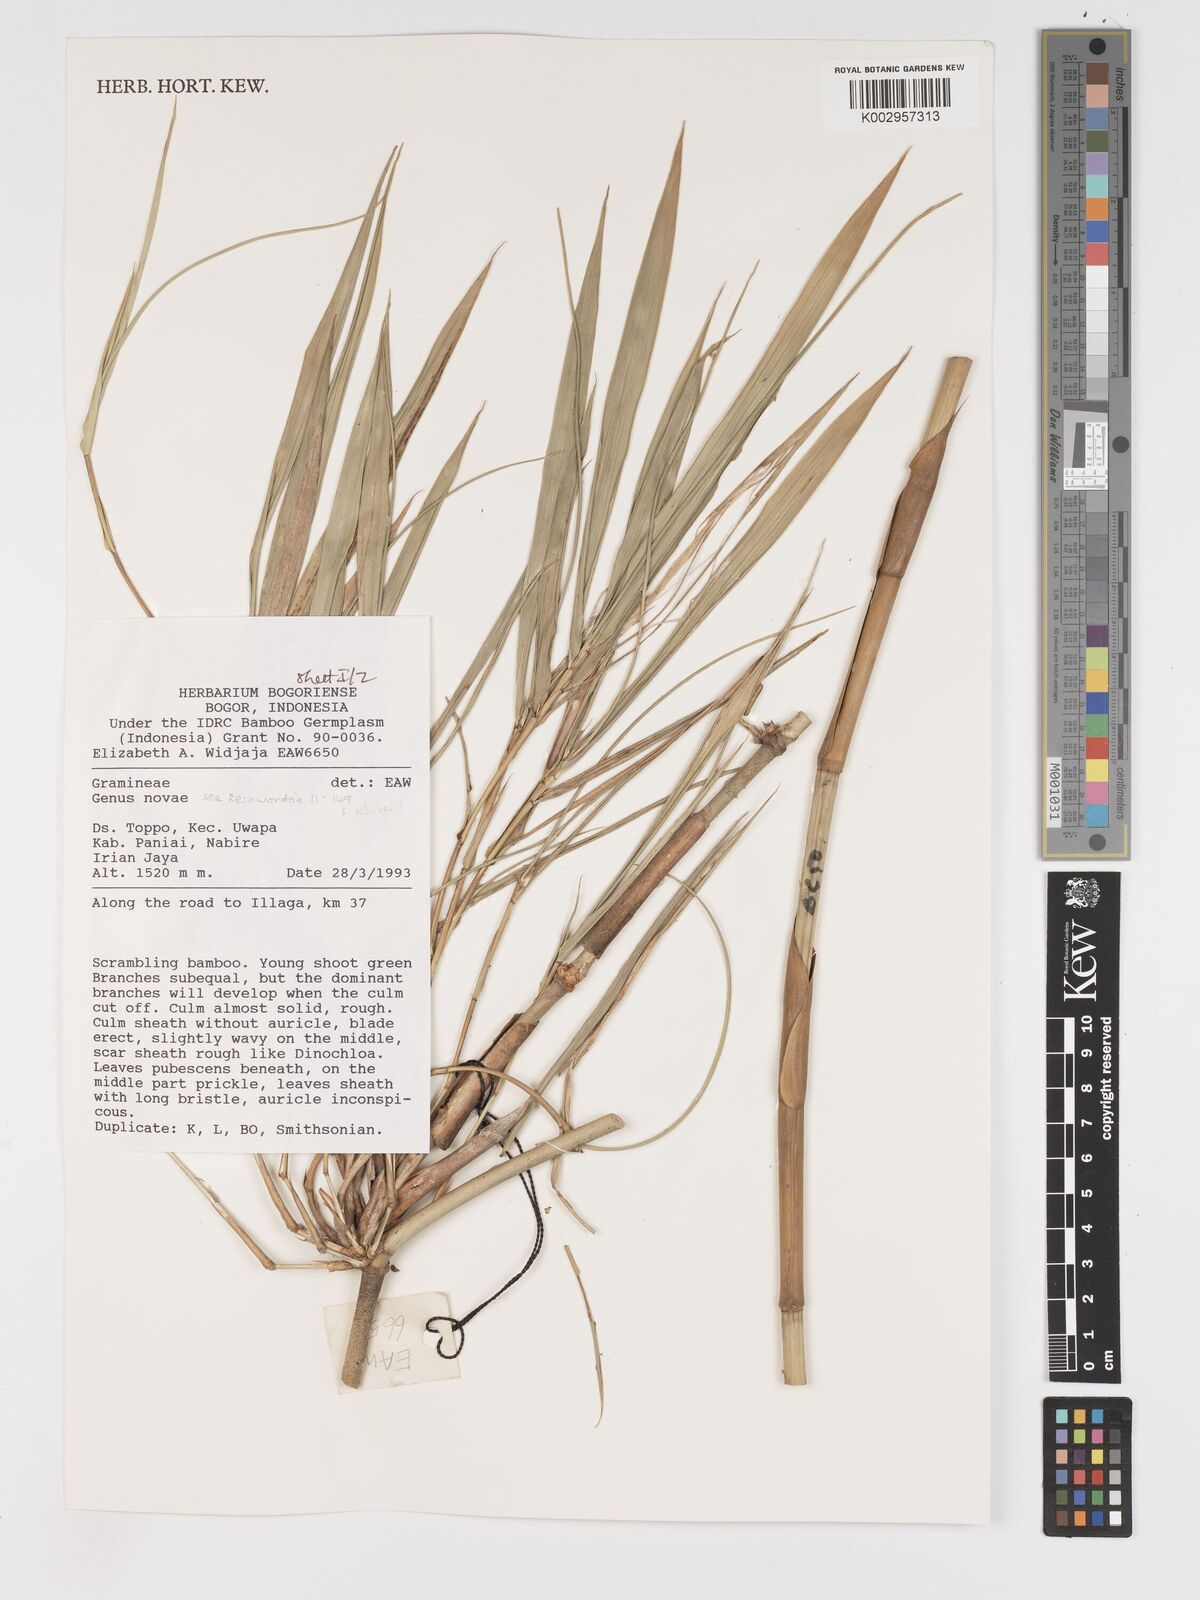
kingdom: Plantae
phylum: Tracheophyta
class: Liliopsida
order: Poales
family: Poaceae
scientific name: Poaceae
